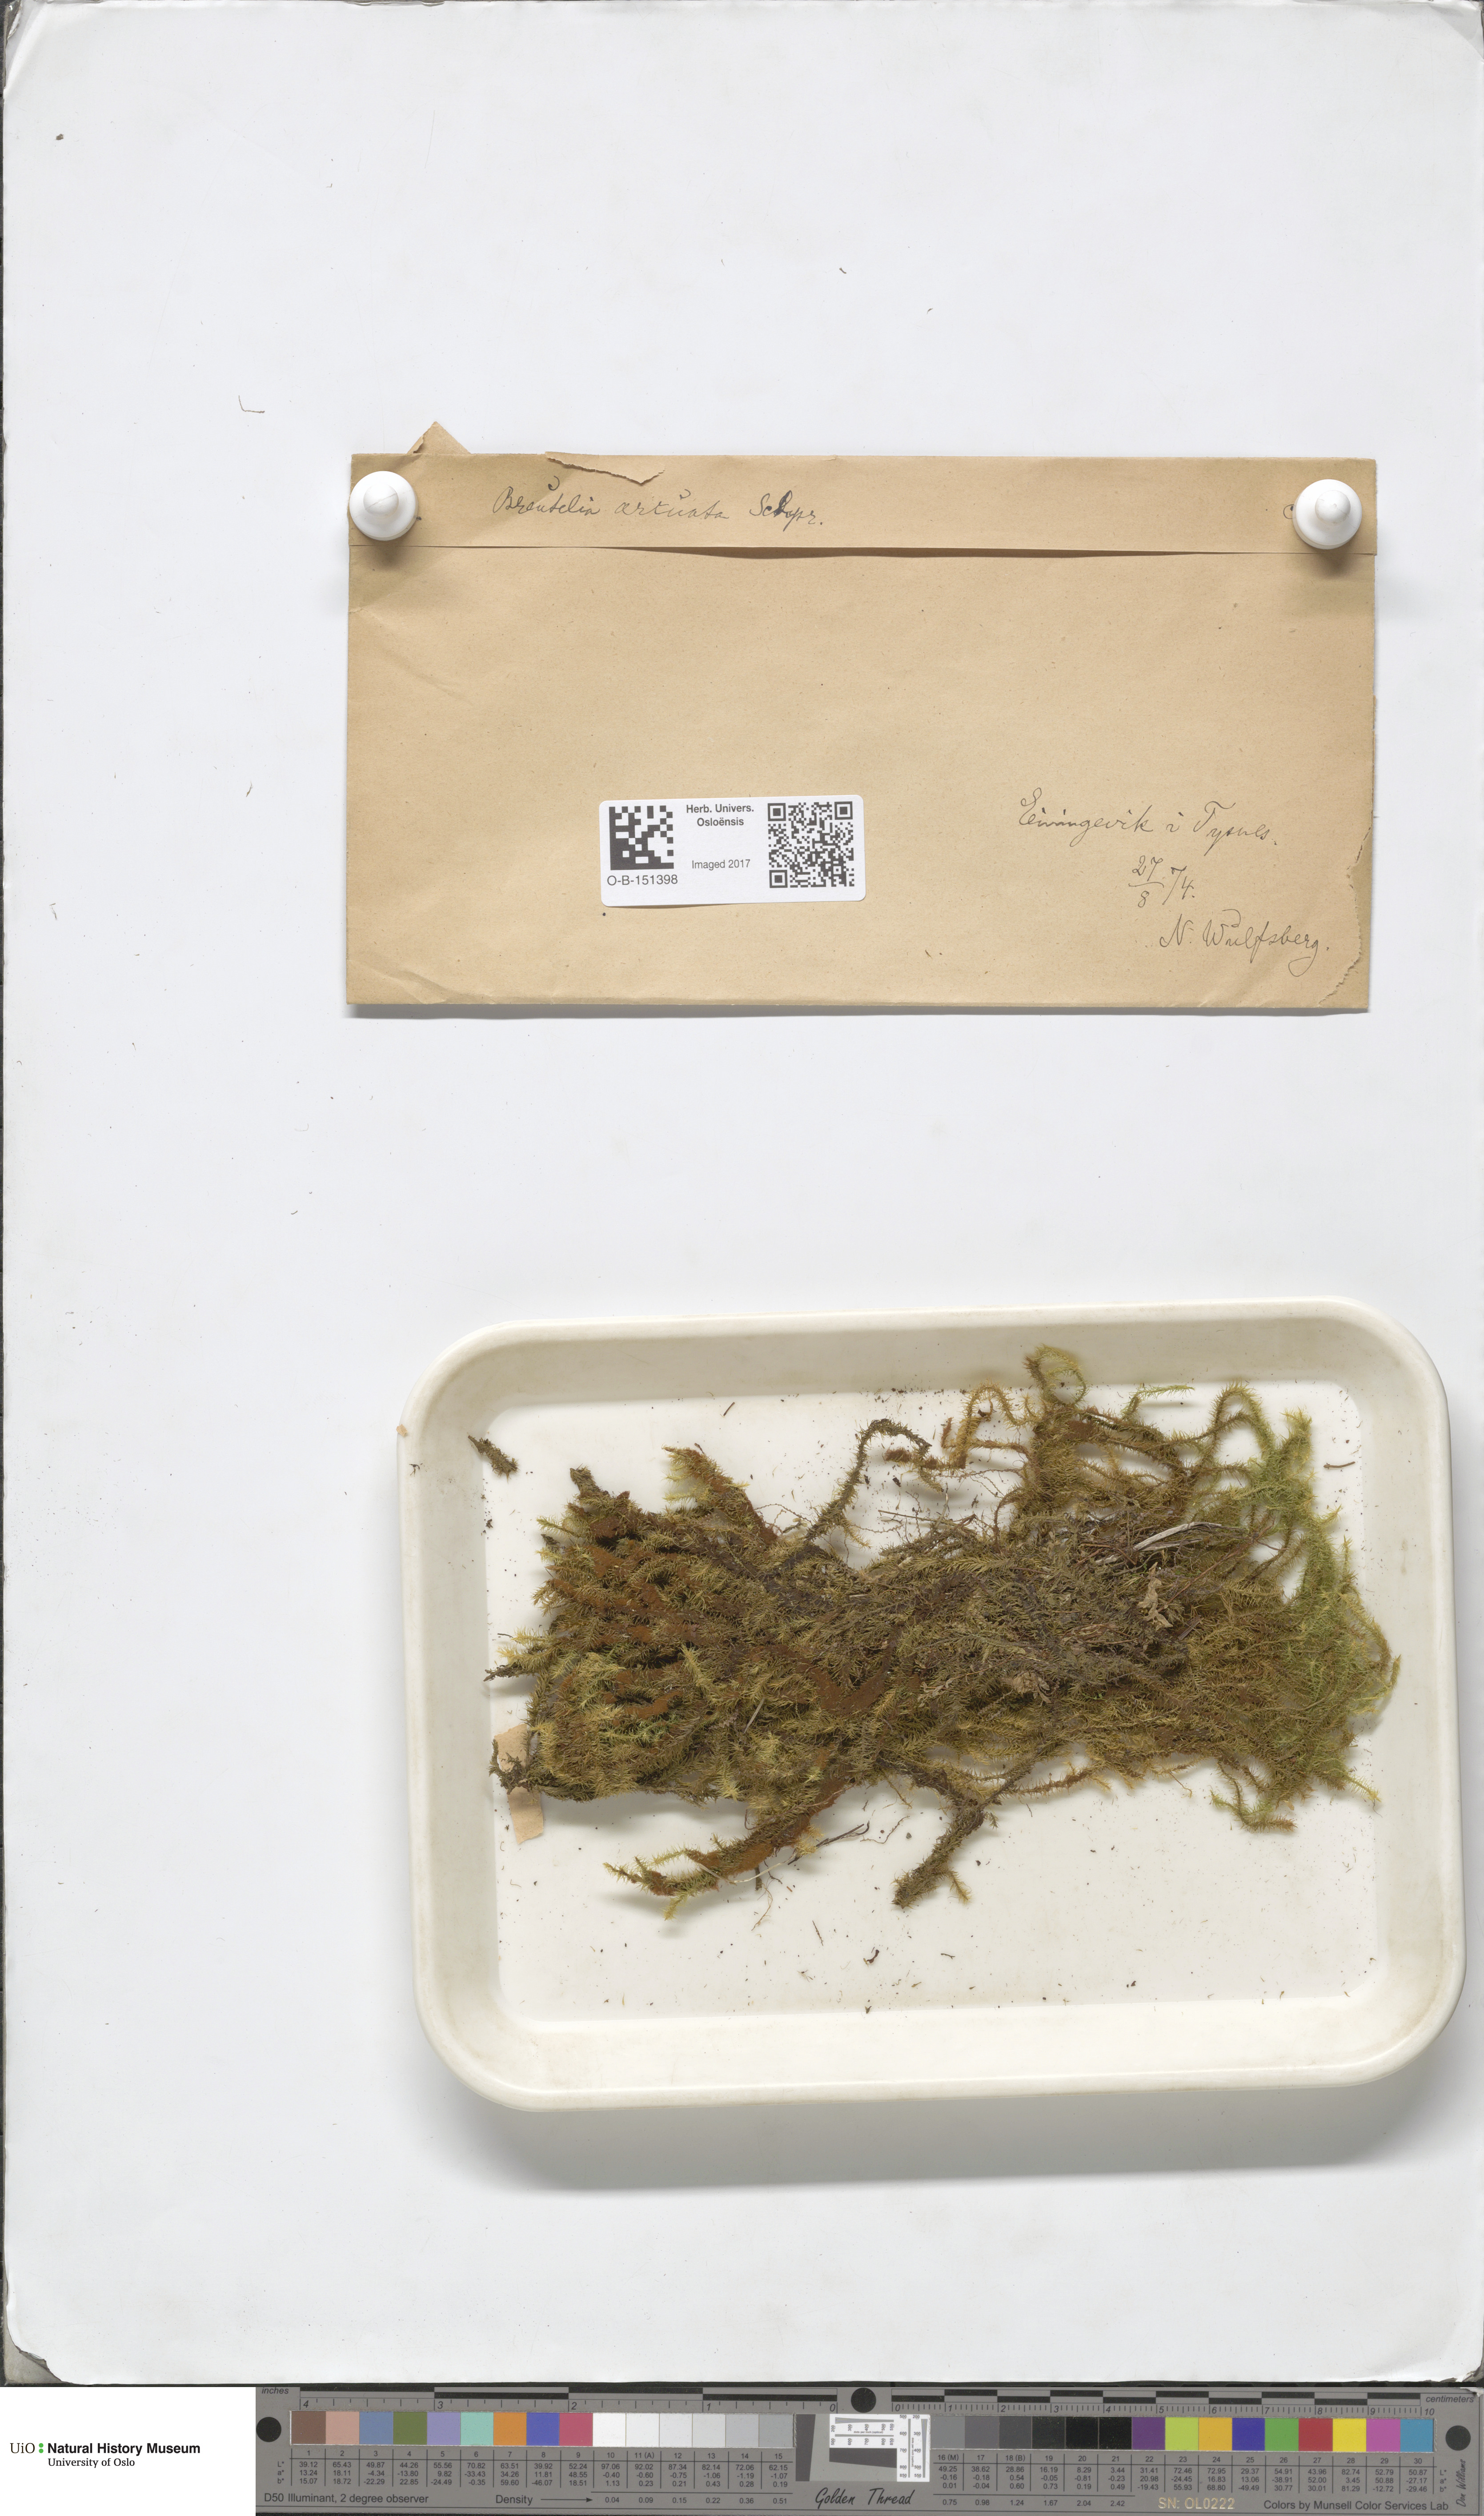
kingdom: Plantae
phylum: Bryophyta
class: Bryopsida
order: Bartramiales
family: Bartramiaceae
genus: Breutelia
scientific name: Breutelia chrysocoma
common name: Bottle-brush moss
